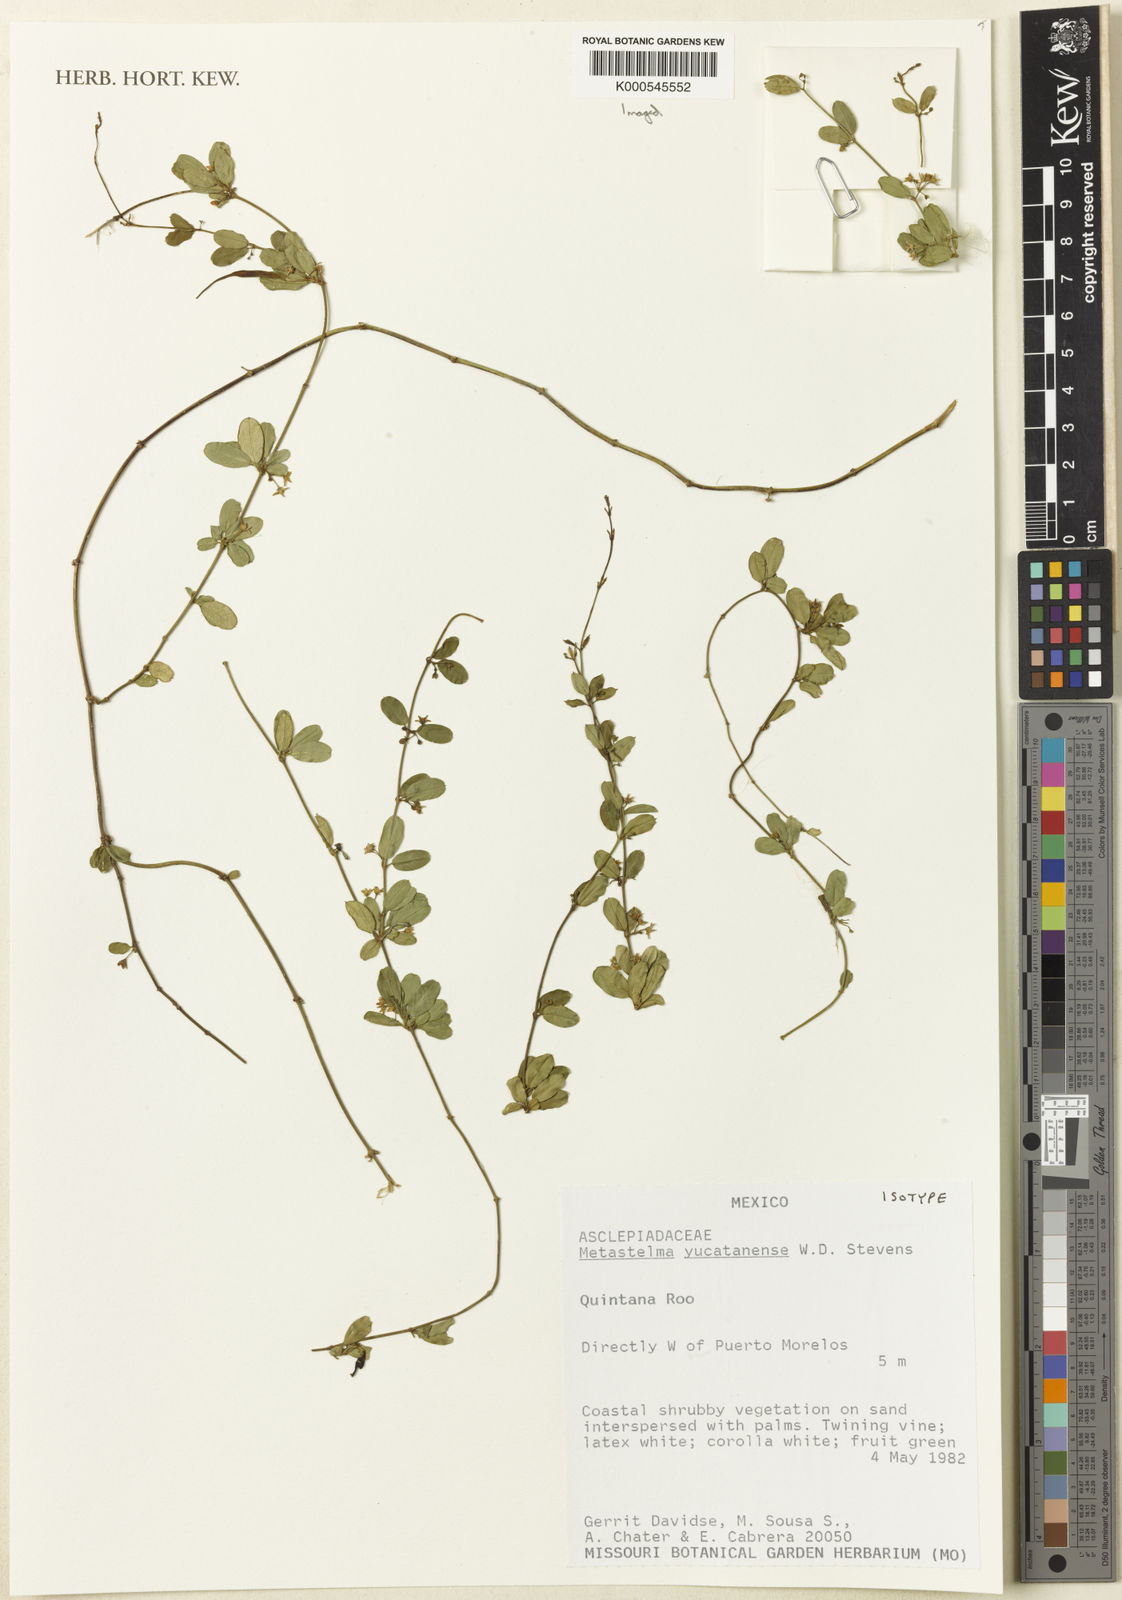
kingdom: Plantae
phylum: Tracheophyta
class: Magnoliopsida
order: Gentianales
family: Apocynaceae
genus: Metastelma
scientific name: Metastelma yucatanense
